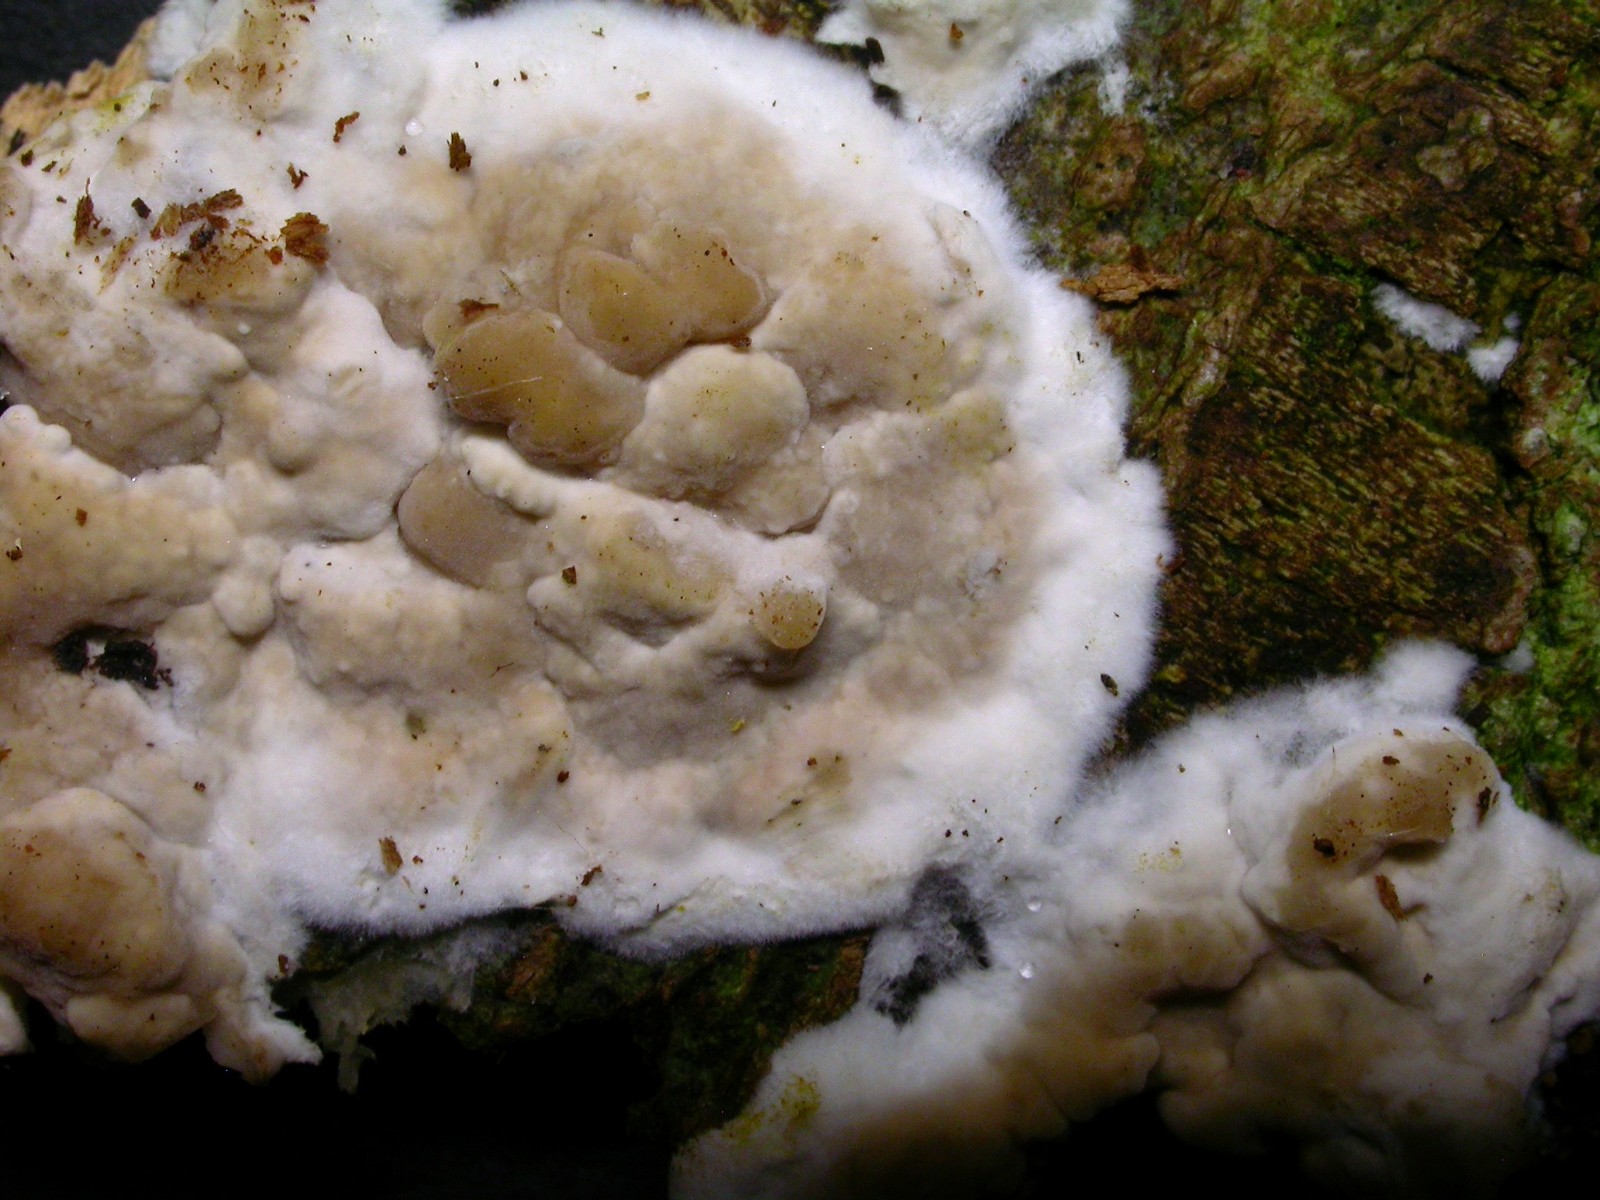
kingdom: Fungi
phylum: Basidiomycota
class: Agaricomycetes
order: Agaricales
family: Physalacriaceae
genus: Cylindrobasidium
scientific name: Cylindrobasidium evolvens
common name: sprækkehinde
